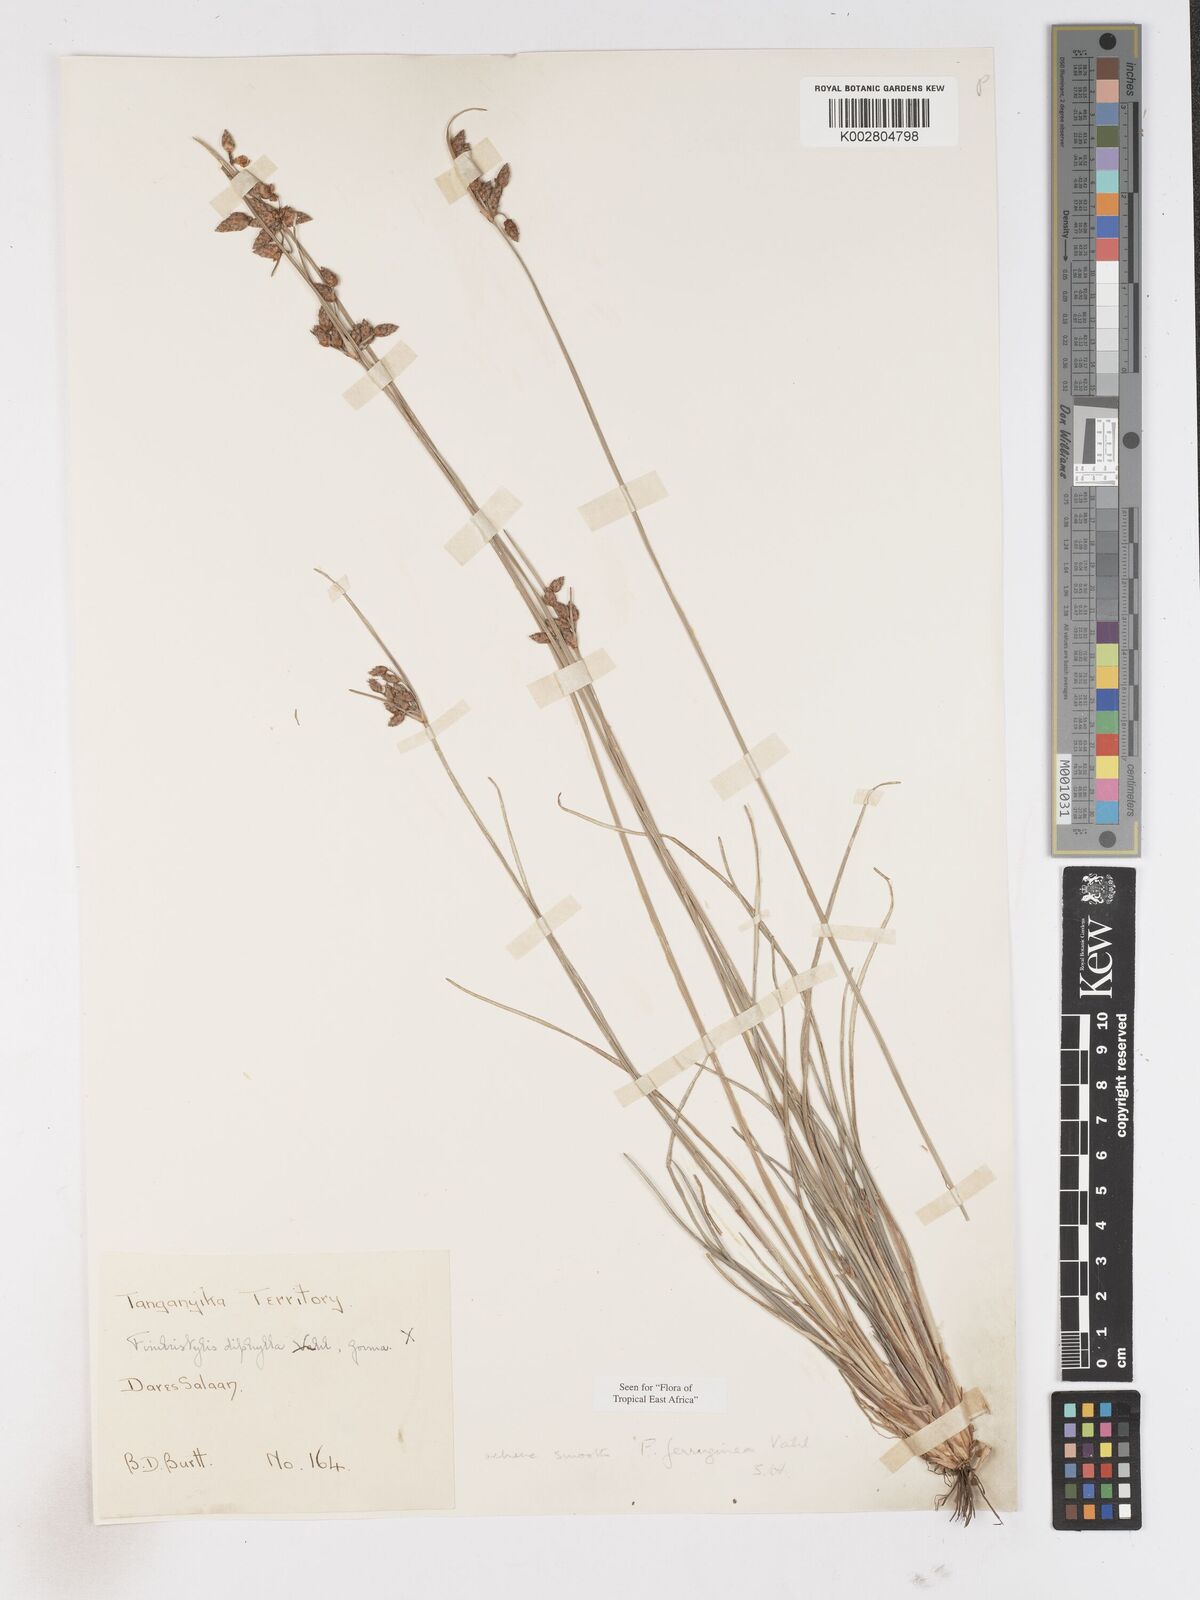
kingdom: Plantae
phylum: Tracheophyta
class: Liliopsida
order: Poales
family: Cyperaceae
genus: Fimbristylis
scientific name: Fimbristylis ferruginea
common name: West indian fimbry
